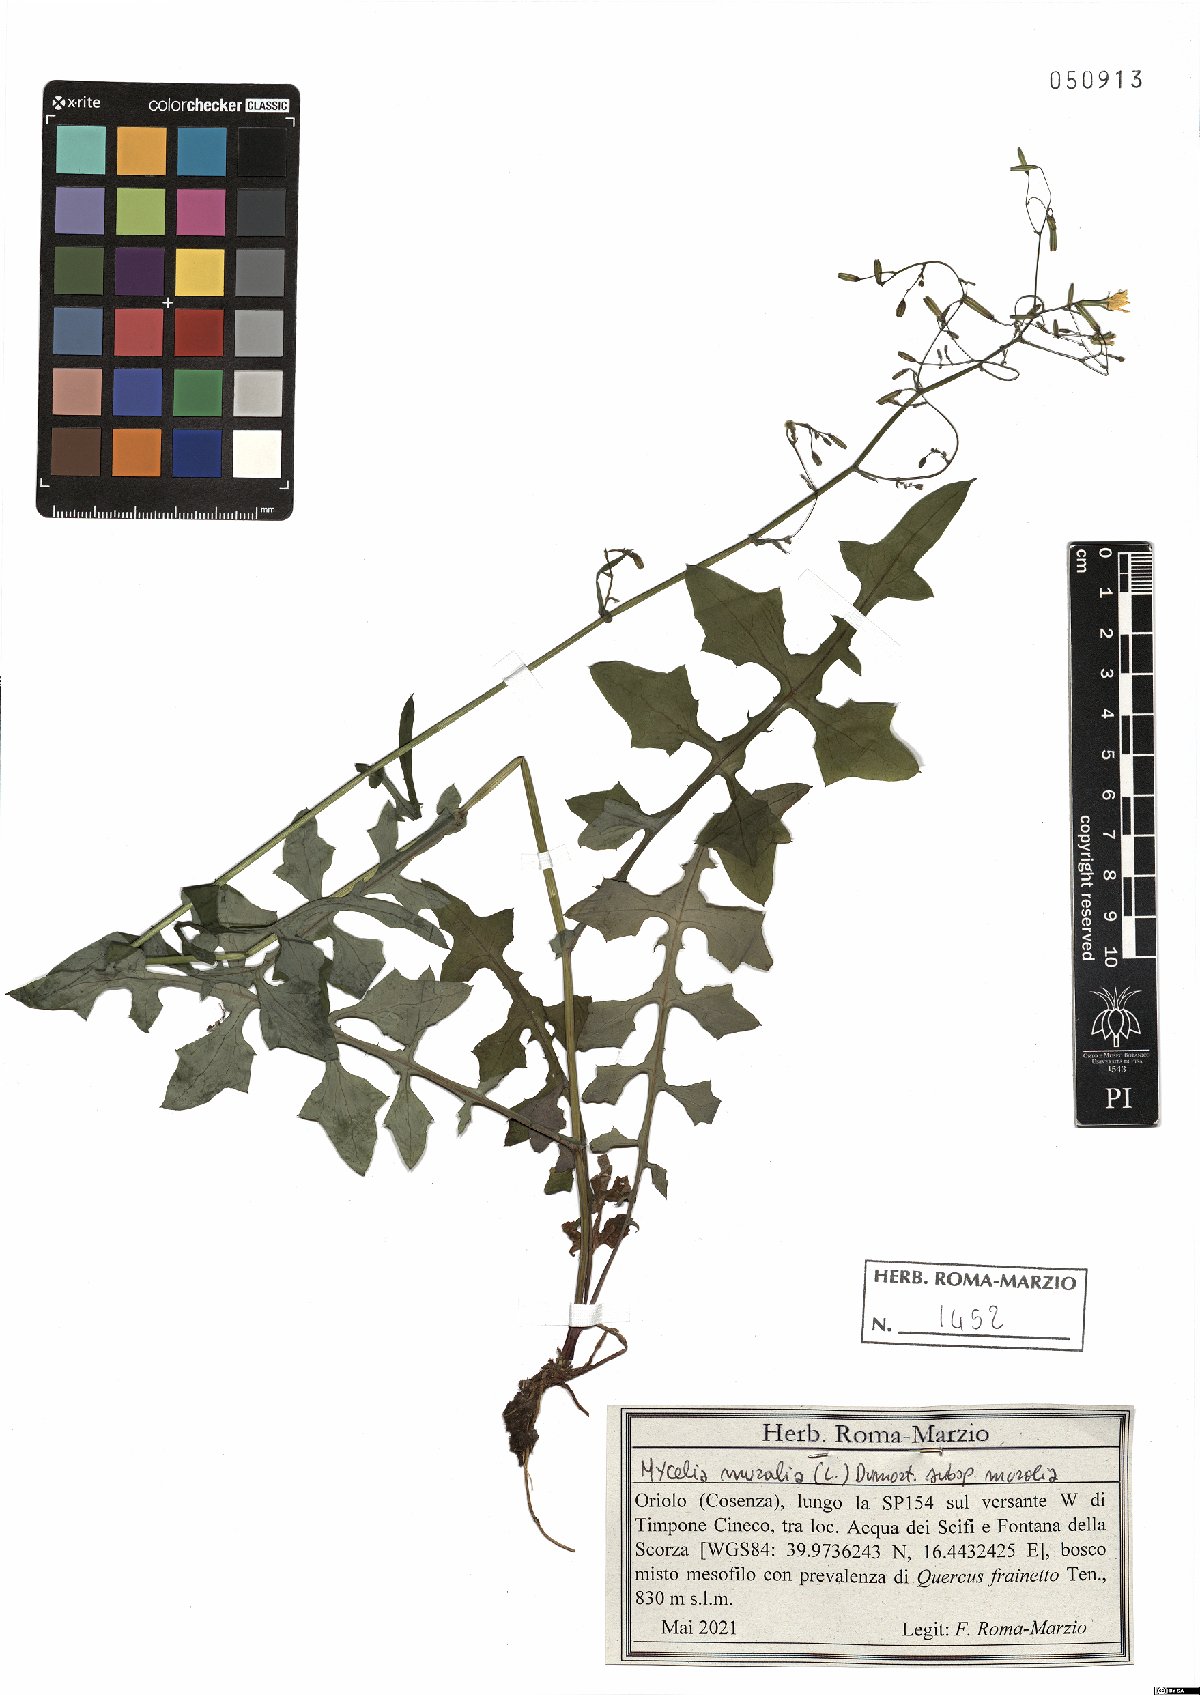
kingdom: Plantae
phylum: Tracheophyta
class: Magnoliopsida
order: Asterales
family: Asteraceae
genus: Mycelis
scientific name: Mycelis muralis
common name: Wall lettuce
